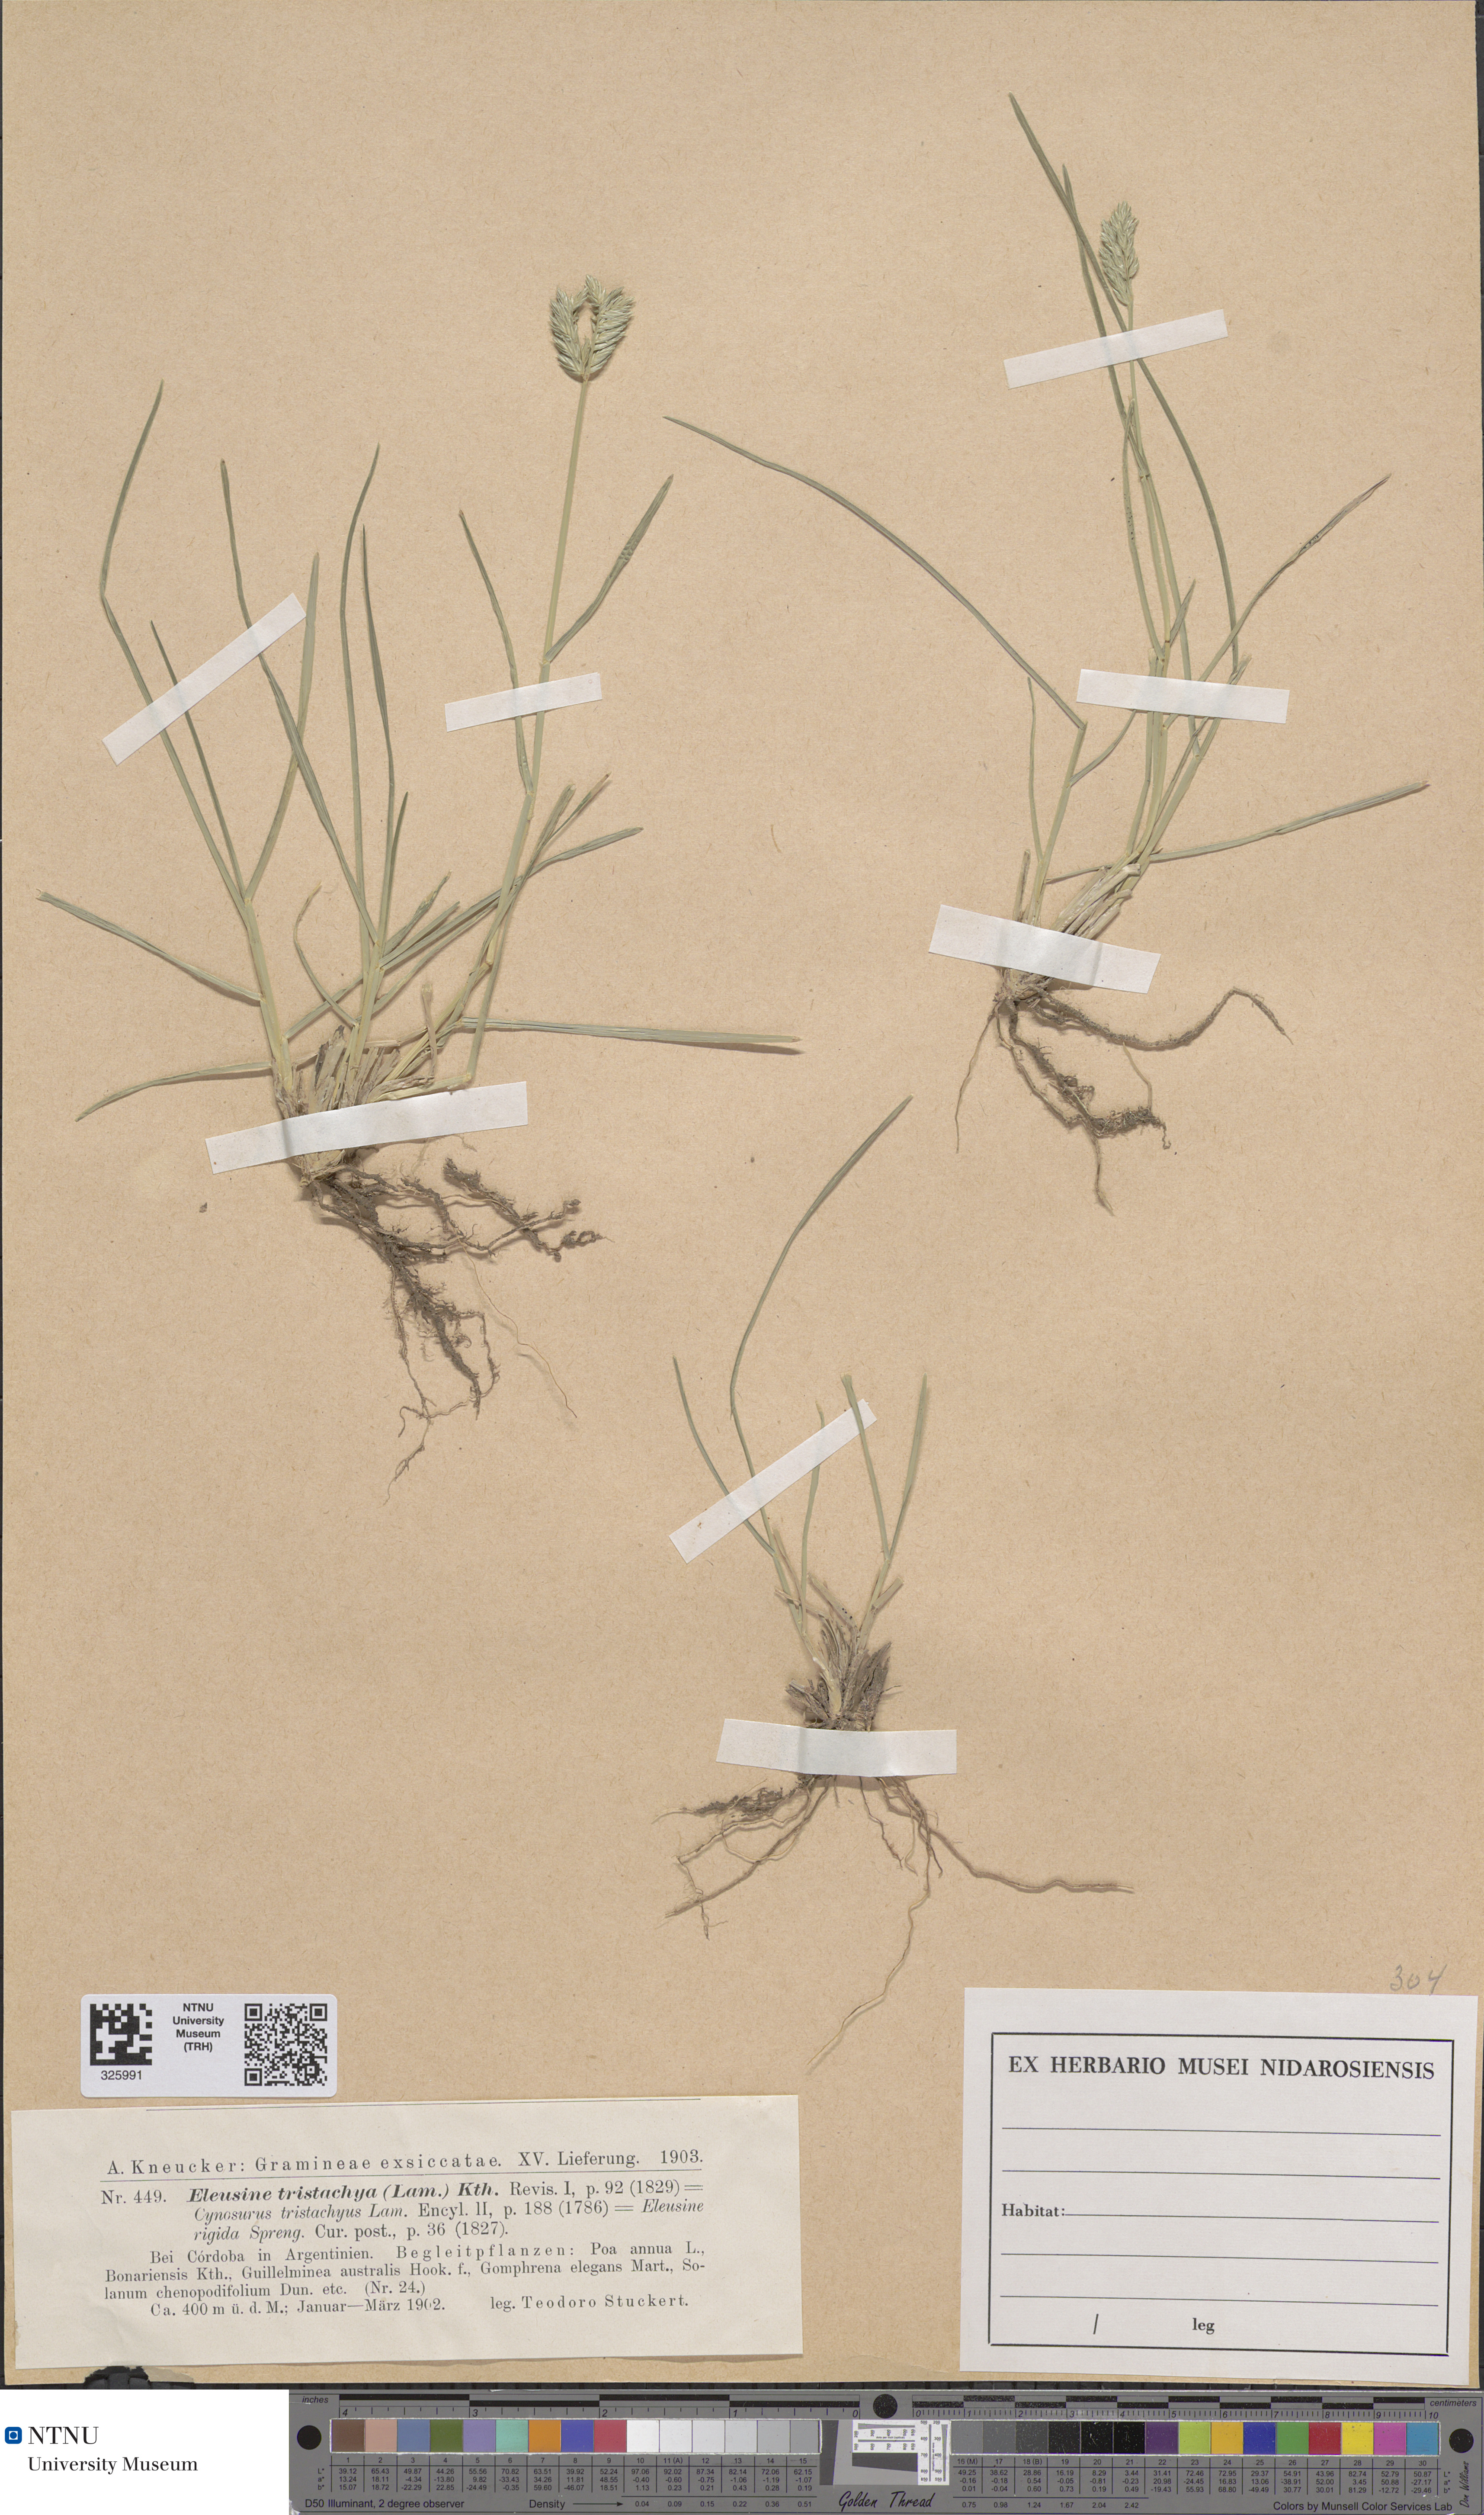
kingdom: Plantae
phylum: Tracheophyta
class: Liliopsida
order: Poales
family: Poaceae
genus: Eleusine
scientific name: Eleusine tristachya
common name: American yard-grass
